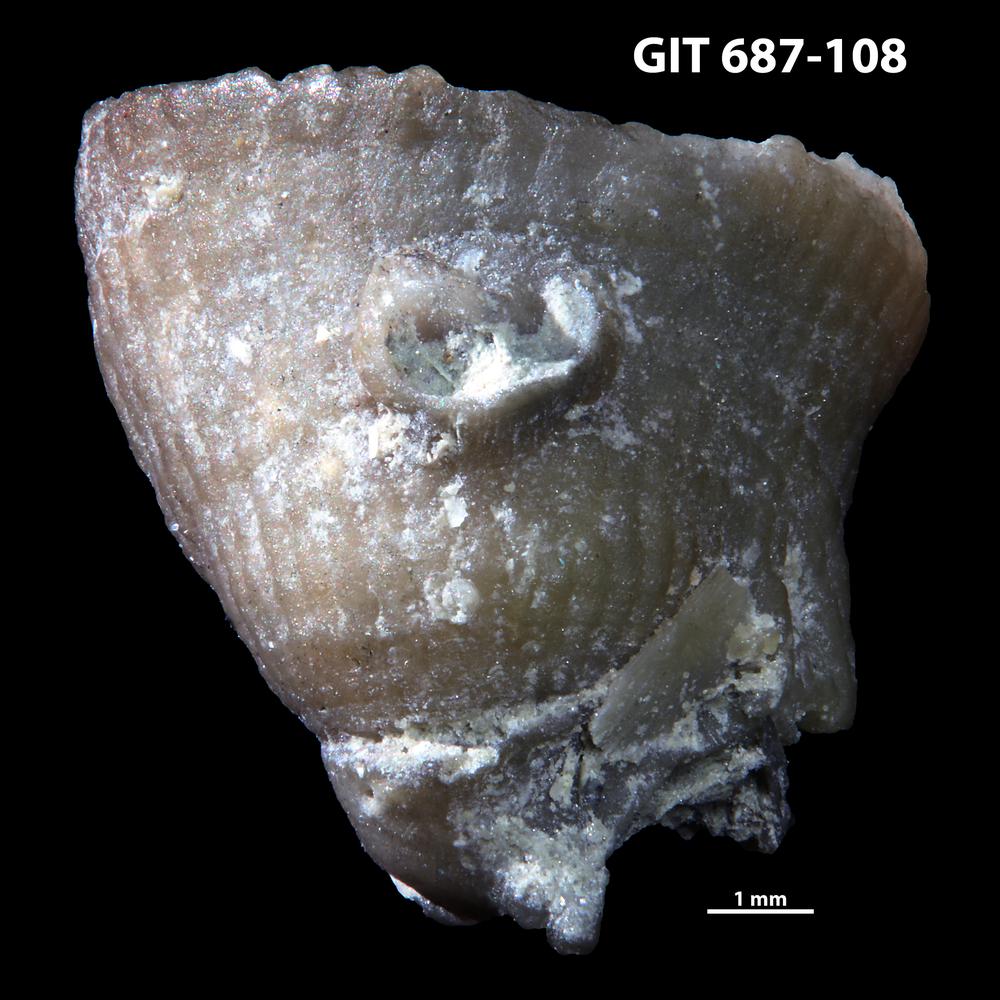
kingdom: Animalia
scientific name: Animalia
